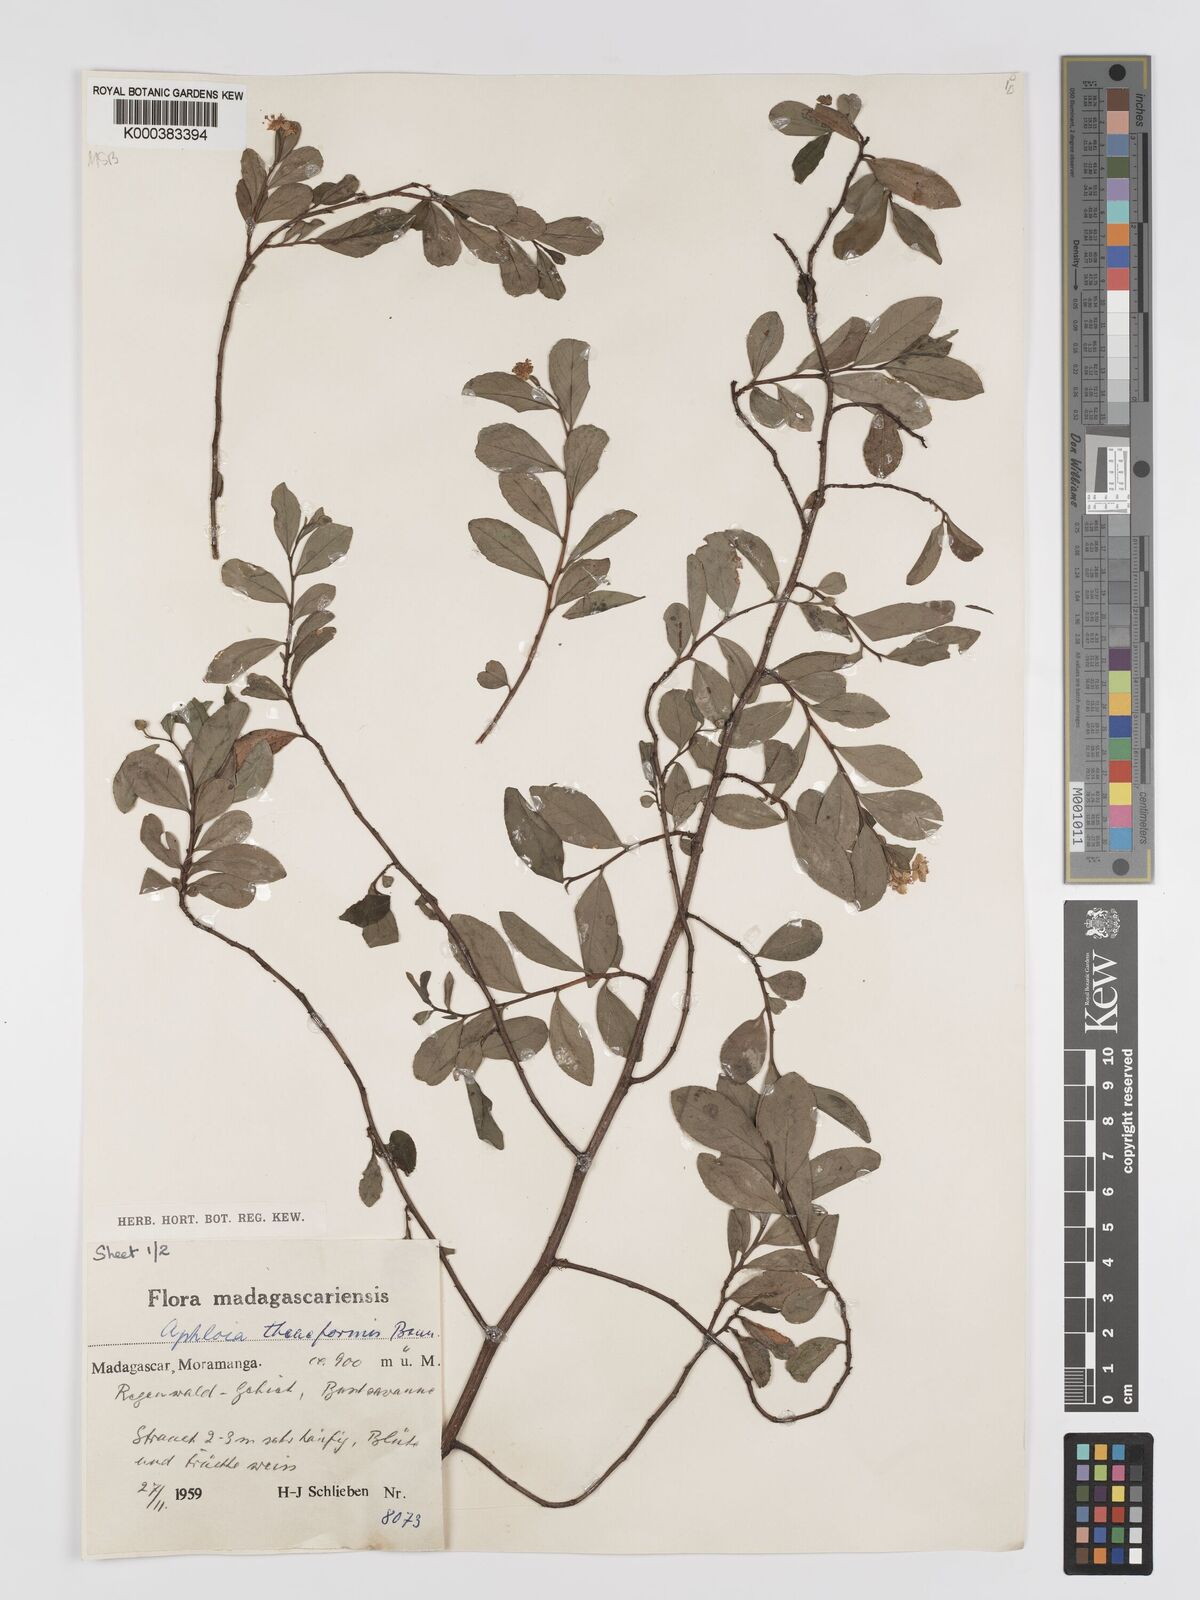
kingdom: Plantae
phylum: Tracheophyta
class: Magnoliopsida
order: Crossosomatales
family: Aphloiaceae
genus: Aphloia
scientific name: Aphloia theiformis
